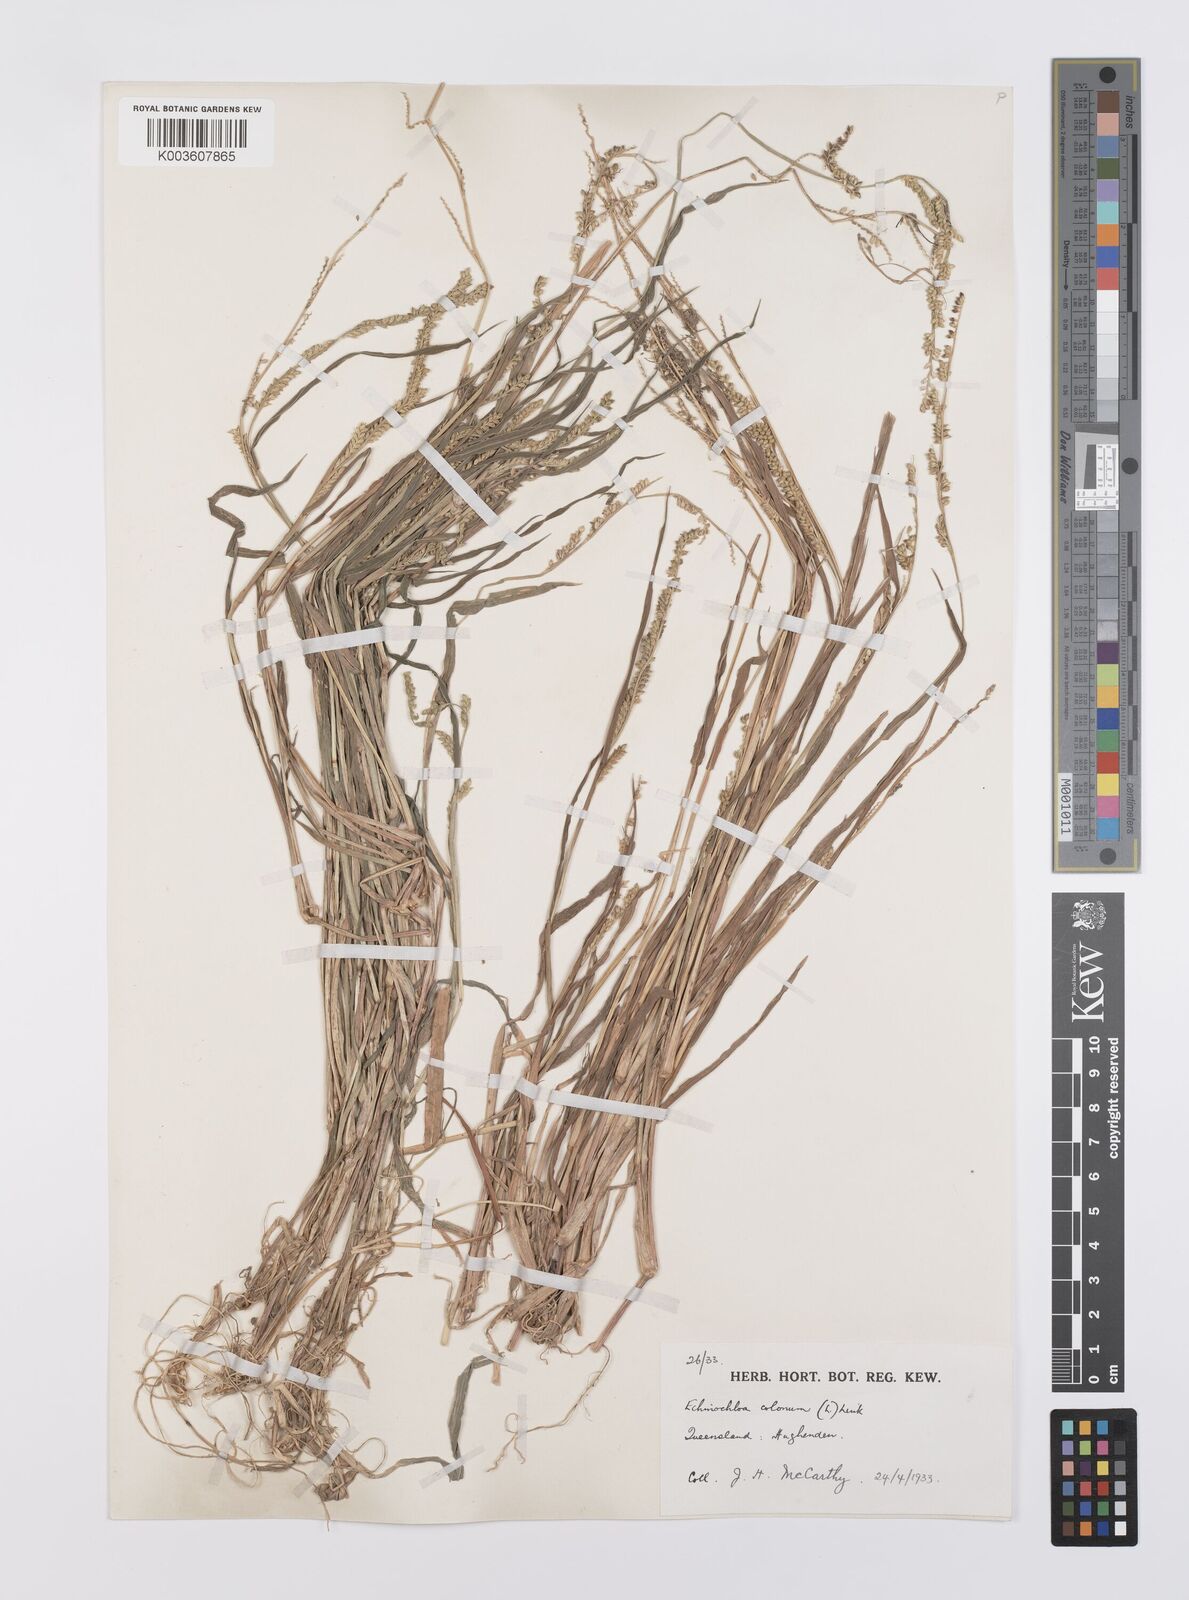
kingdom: Plantae
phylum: Tracheophyta
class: Liliopsida
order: Poales
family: Poaceae
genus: Echinochloa
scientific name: Echinochloa colonum
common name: Jungle rice
